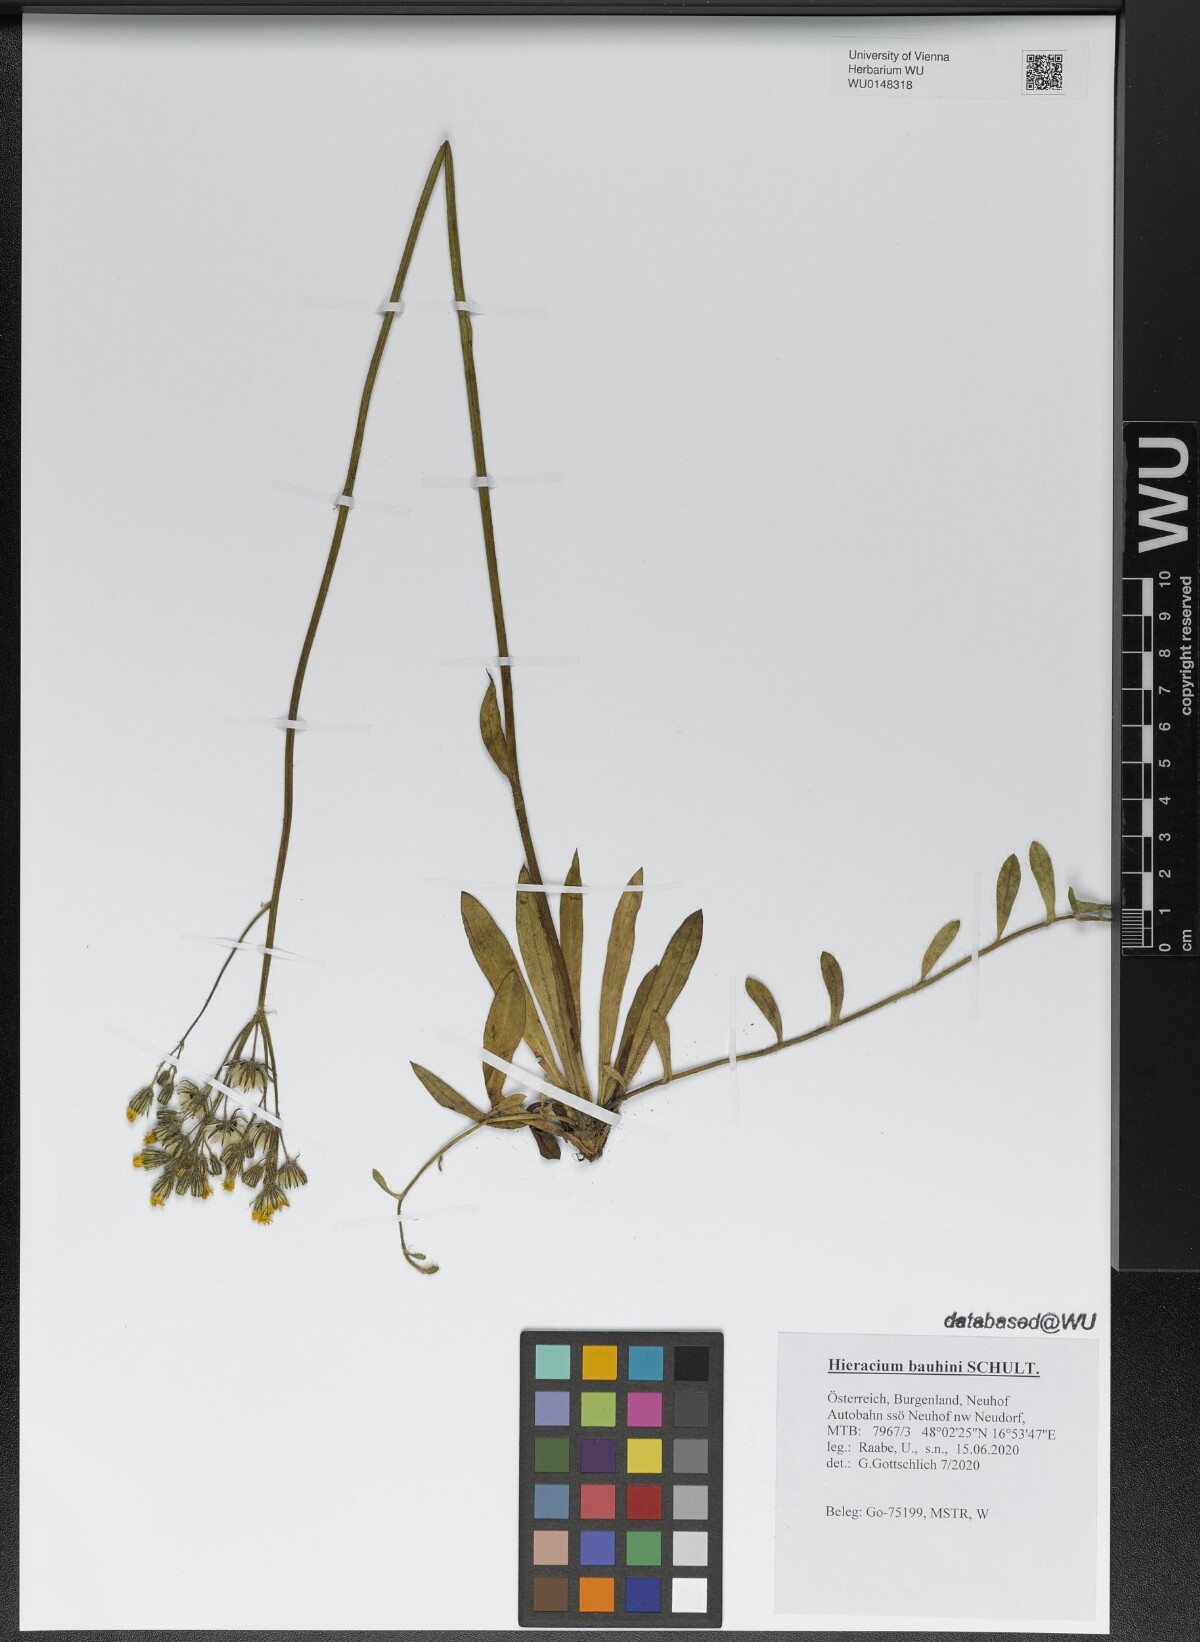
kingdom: Plantae
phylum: Tracheophyta
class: Magnoliopsida
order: Asterales
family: Asteraceae
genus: Pilosella
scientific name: Pilosella bauhini
